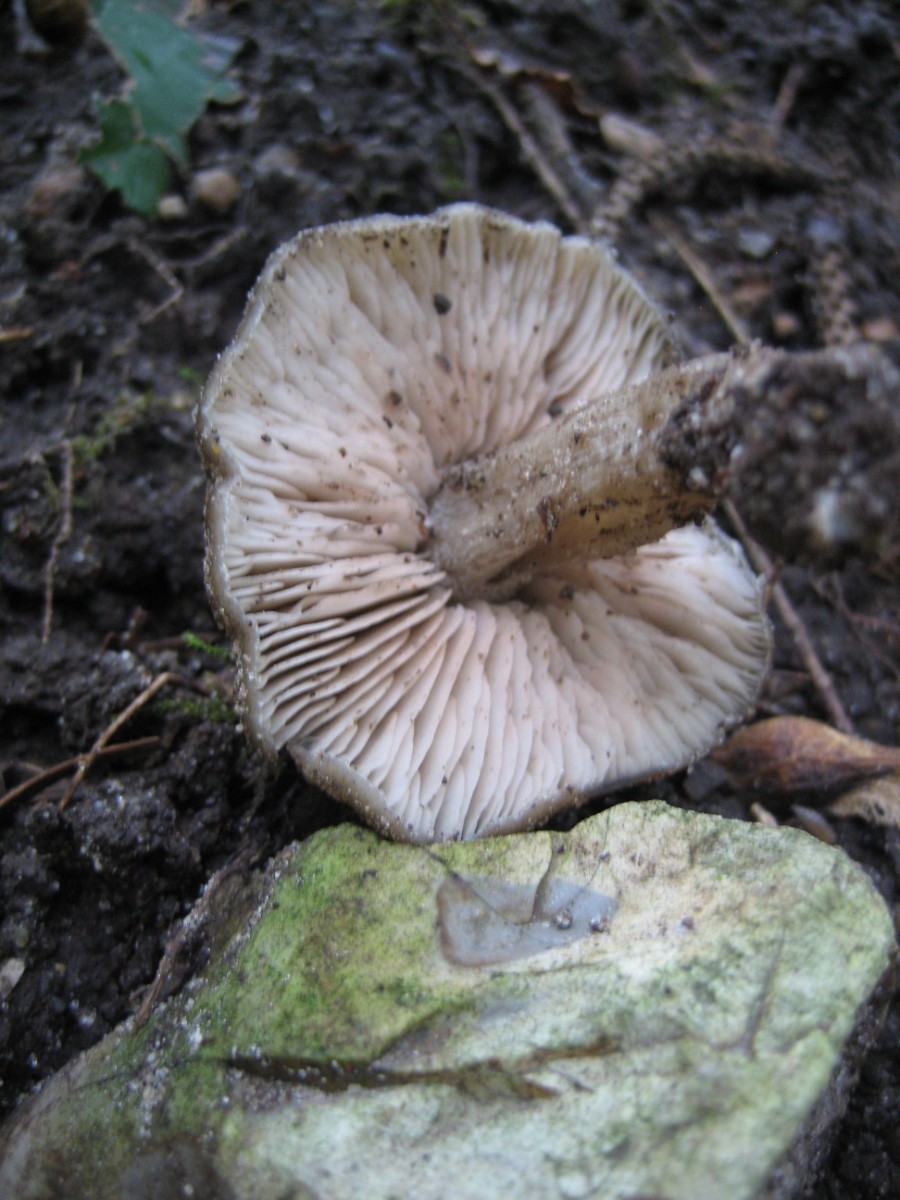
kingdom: Fungi
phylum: Basidiomycota
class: Agaricomycetes
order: Agaricales
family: Entolomataceae
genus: Entoloma
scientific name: Entoloma
